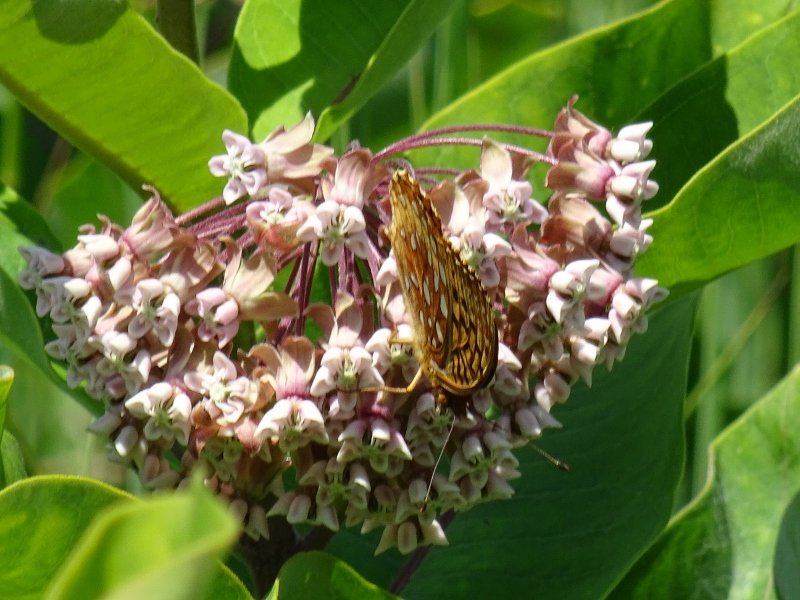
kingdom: Animalia
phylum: Arthropoda
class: Insecta
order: Lepidoptera
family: Nymphalidae
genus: Speyeria
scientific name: Speyeria
